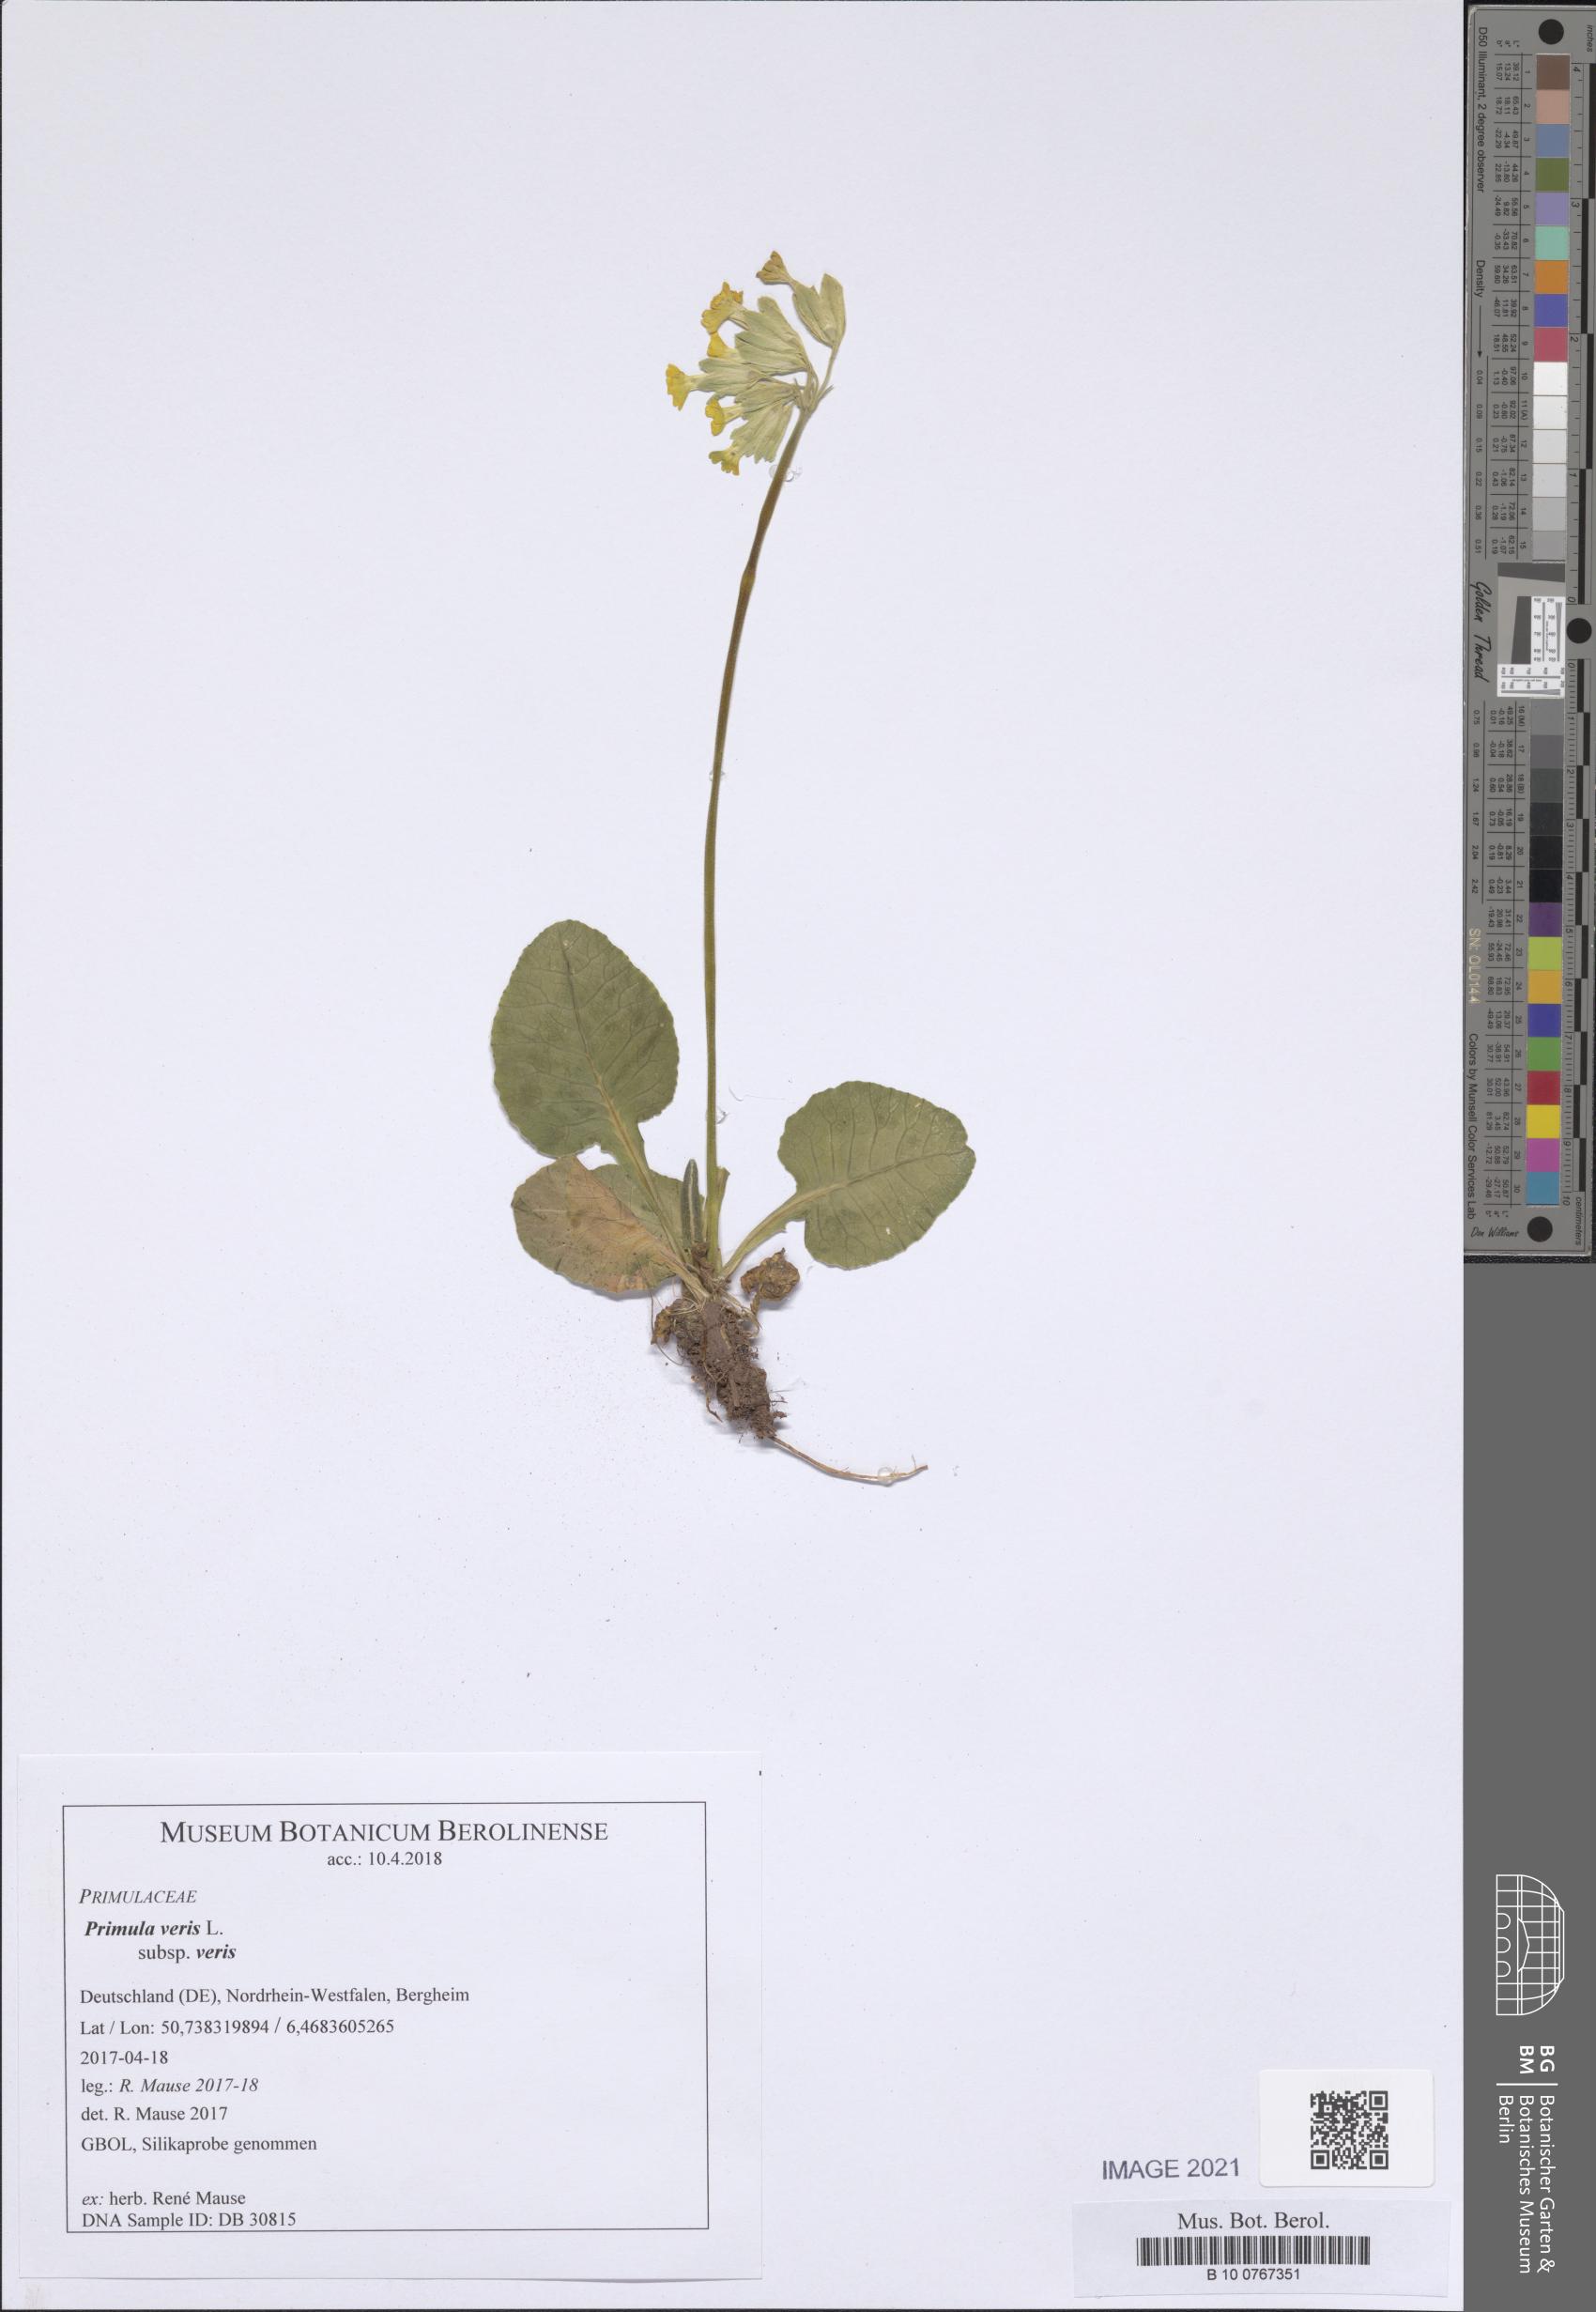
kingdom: Plantae
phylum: Tracheophyta
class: Magnoliopsida
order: Ericales
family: Primulaceae
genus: Primula
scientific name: Primula veris
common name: Cowslip
